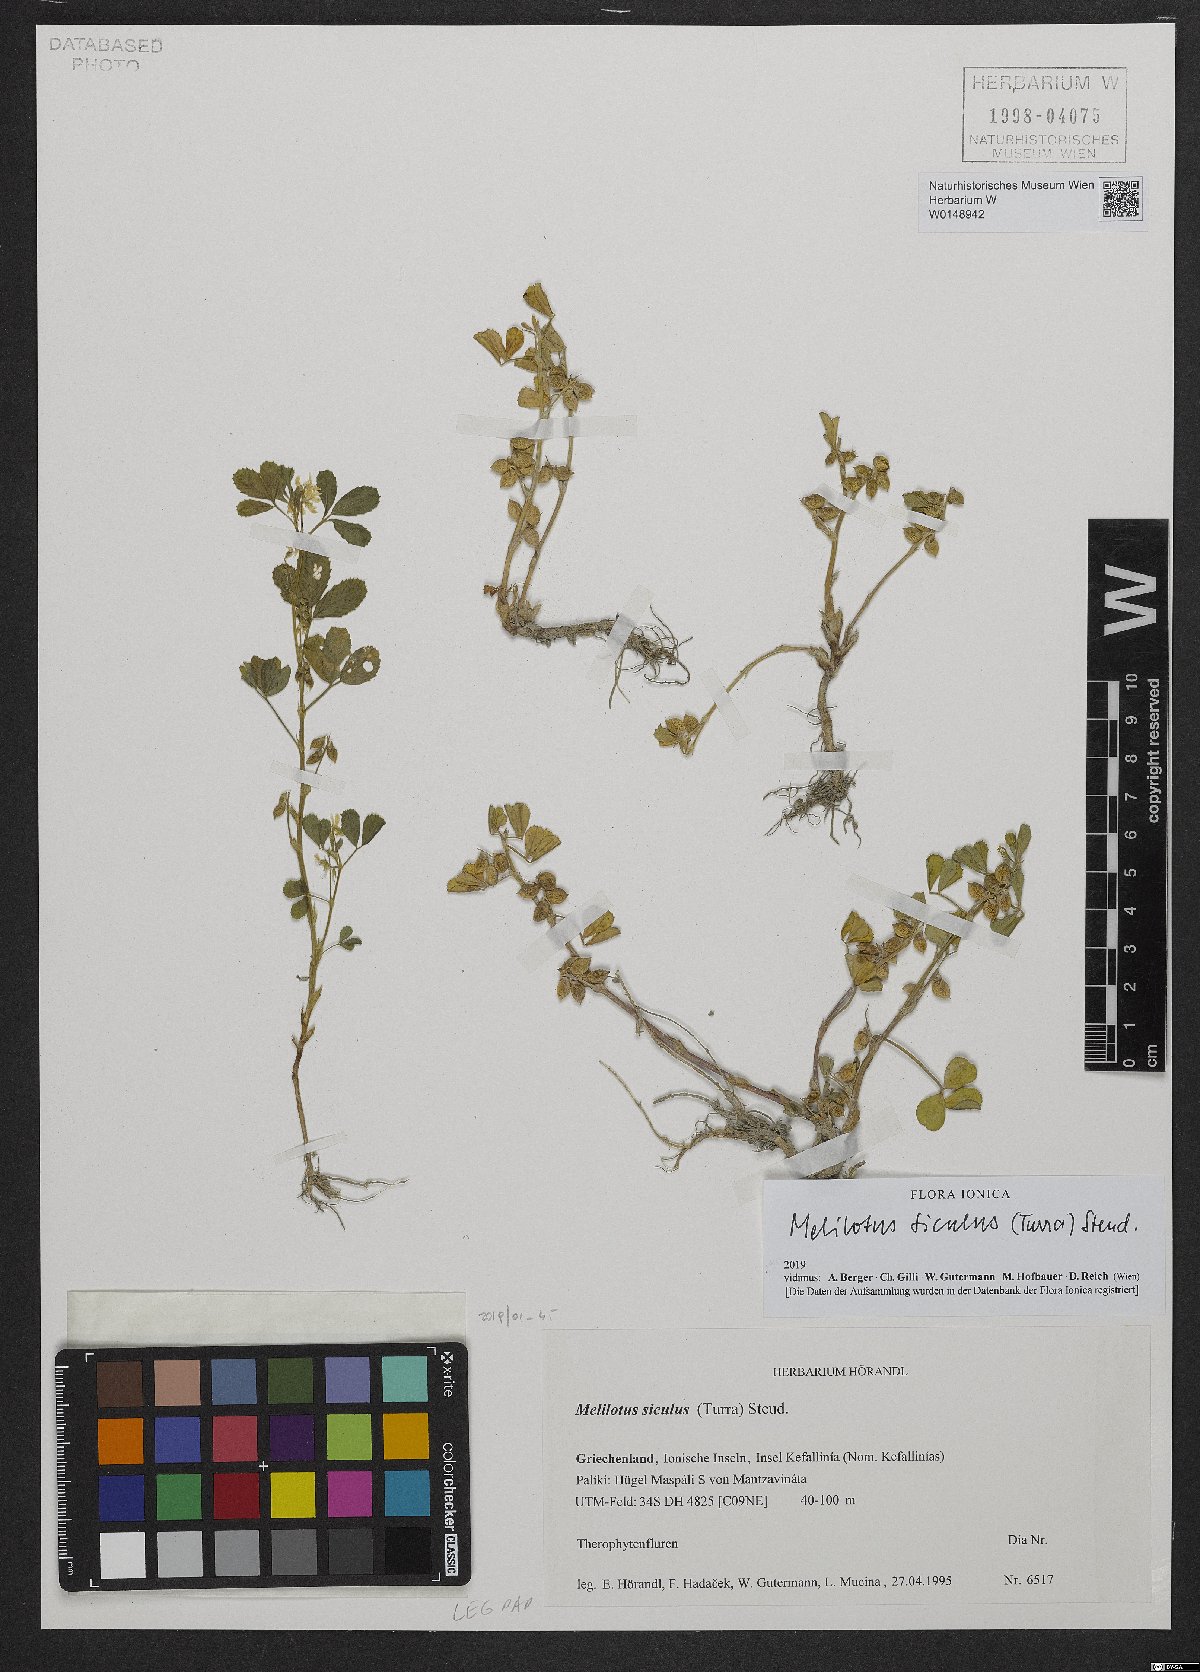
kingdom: Plantae
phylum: Tracheophyta
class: Magnoliopsida
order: Fabales
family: Fabaceae
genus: Melilotus
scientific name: Melilotus siculus
